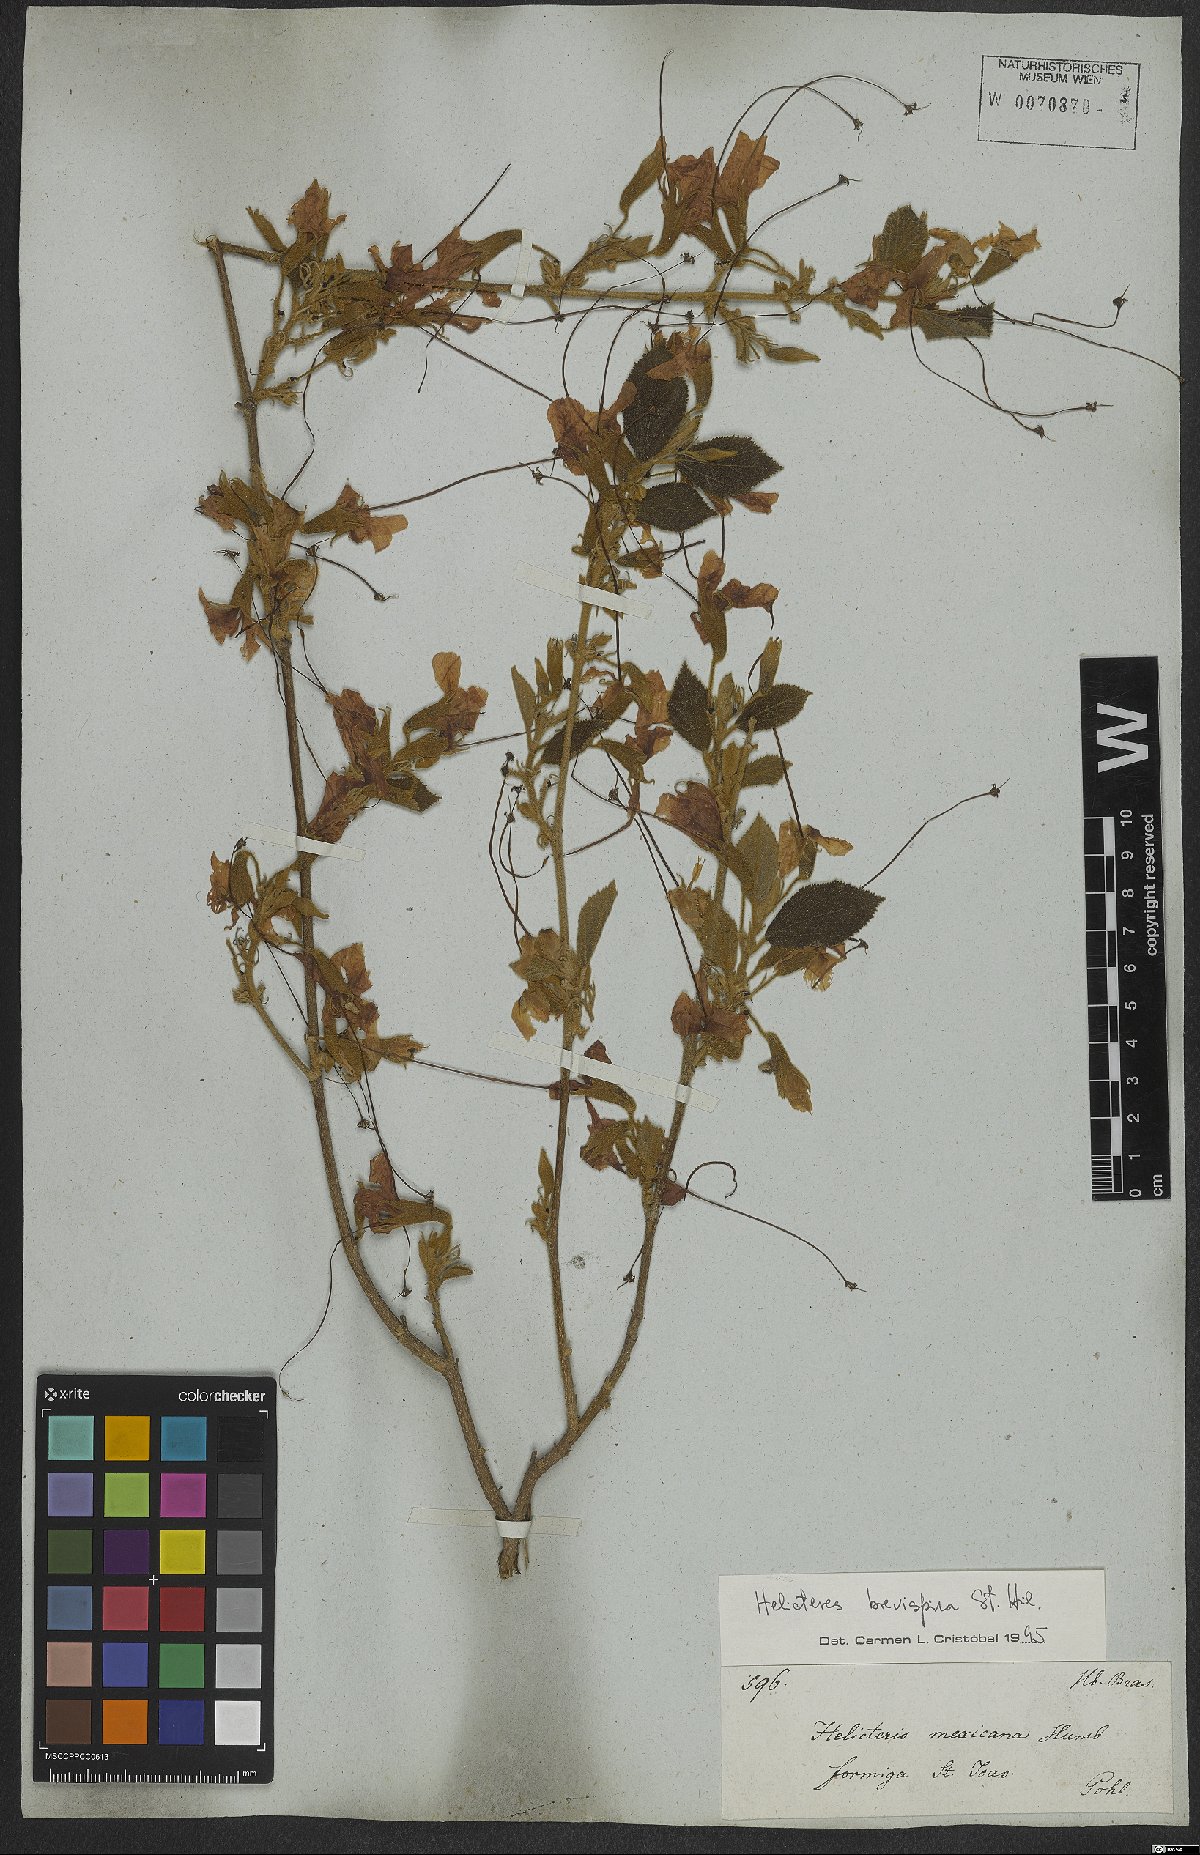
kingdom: Plantae
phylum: Tracheophyta
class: Magnoliopsida
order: Malvales
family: Malvaceae
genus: Helicteres
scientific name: Helicteres brevispira
